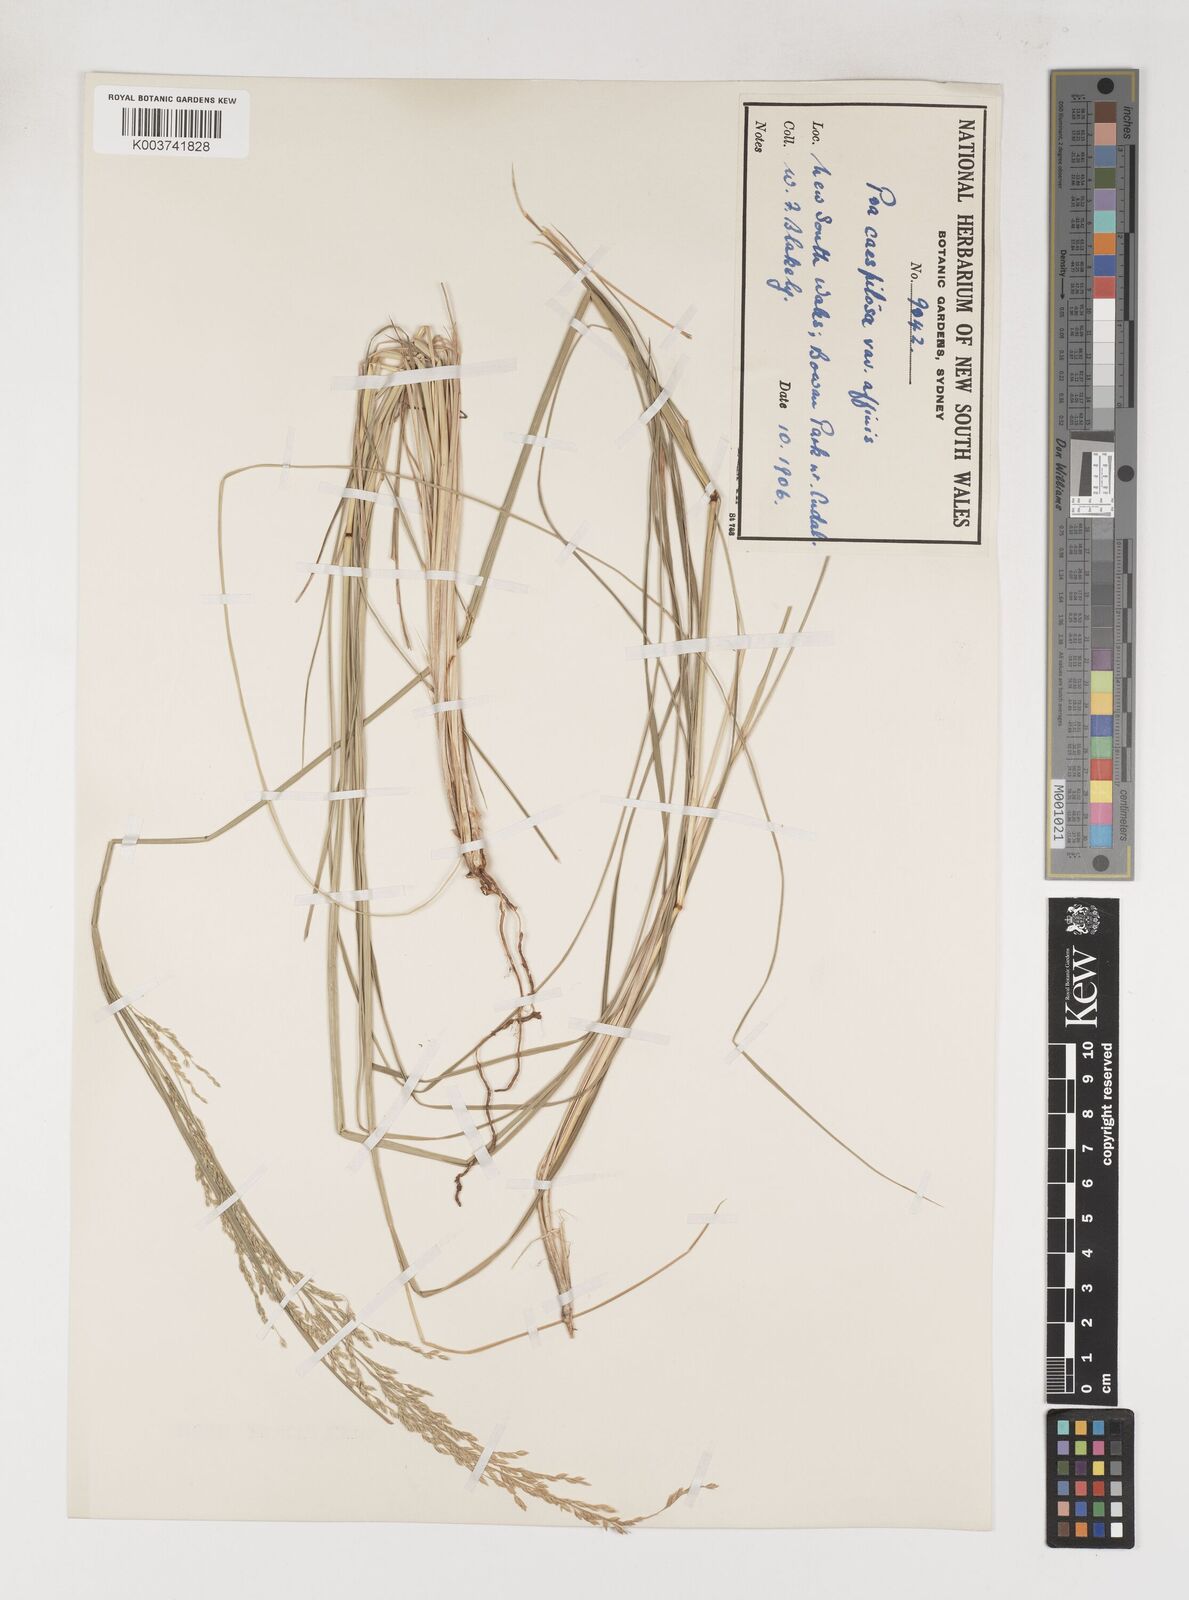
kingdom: Plantae
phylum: Tracheophyta
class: Liliopsida
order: Poales
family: Poaceae
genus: Poa
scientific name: Poa sieberiana
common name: Tussock poa
